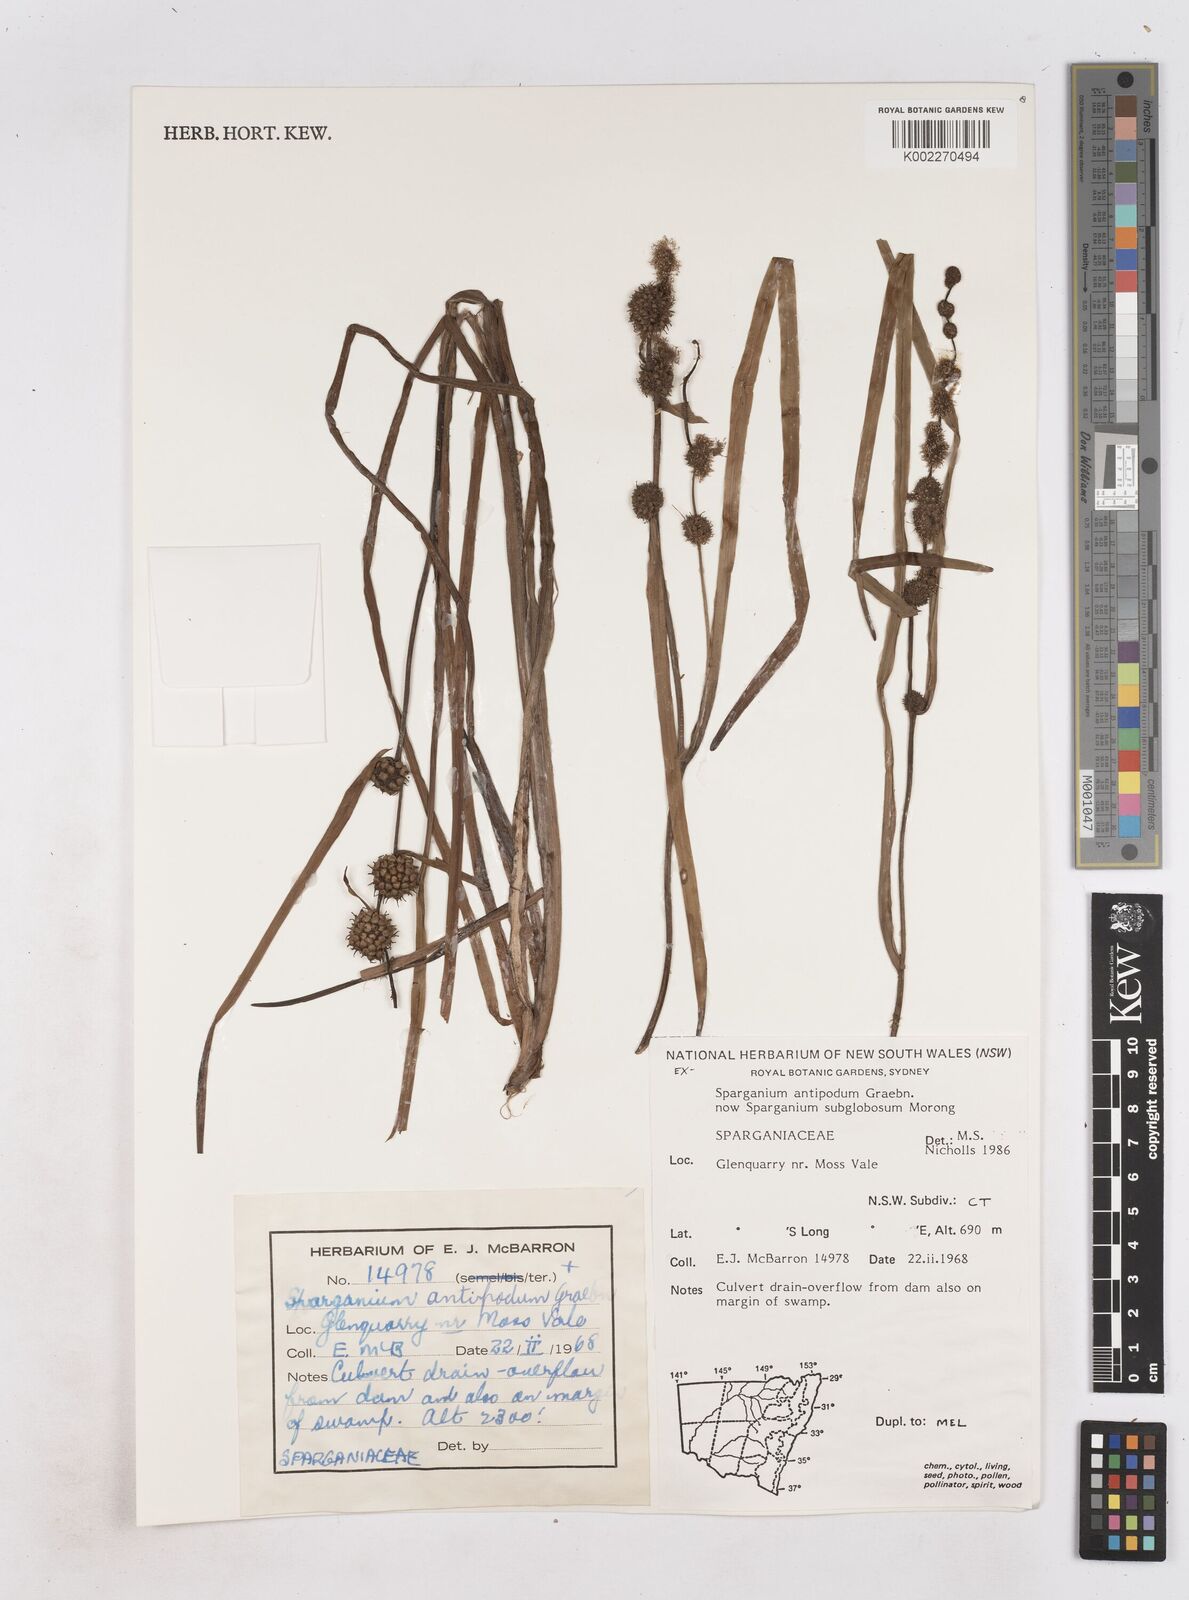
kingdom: Plantae
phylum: Tracheophyta
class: Liliopsida
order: Poales
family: Typhaceae
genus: Sparganium
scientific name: Sparganium subglobosum
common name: Burr­-reed
